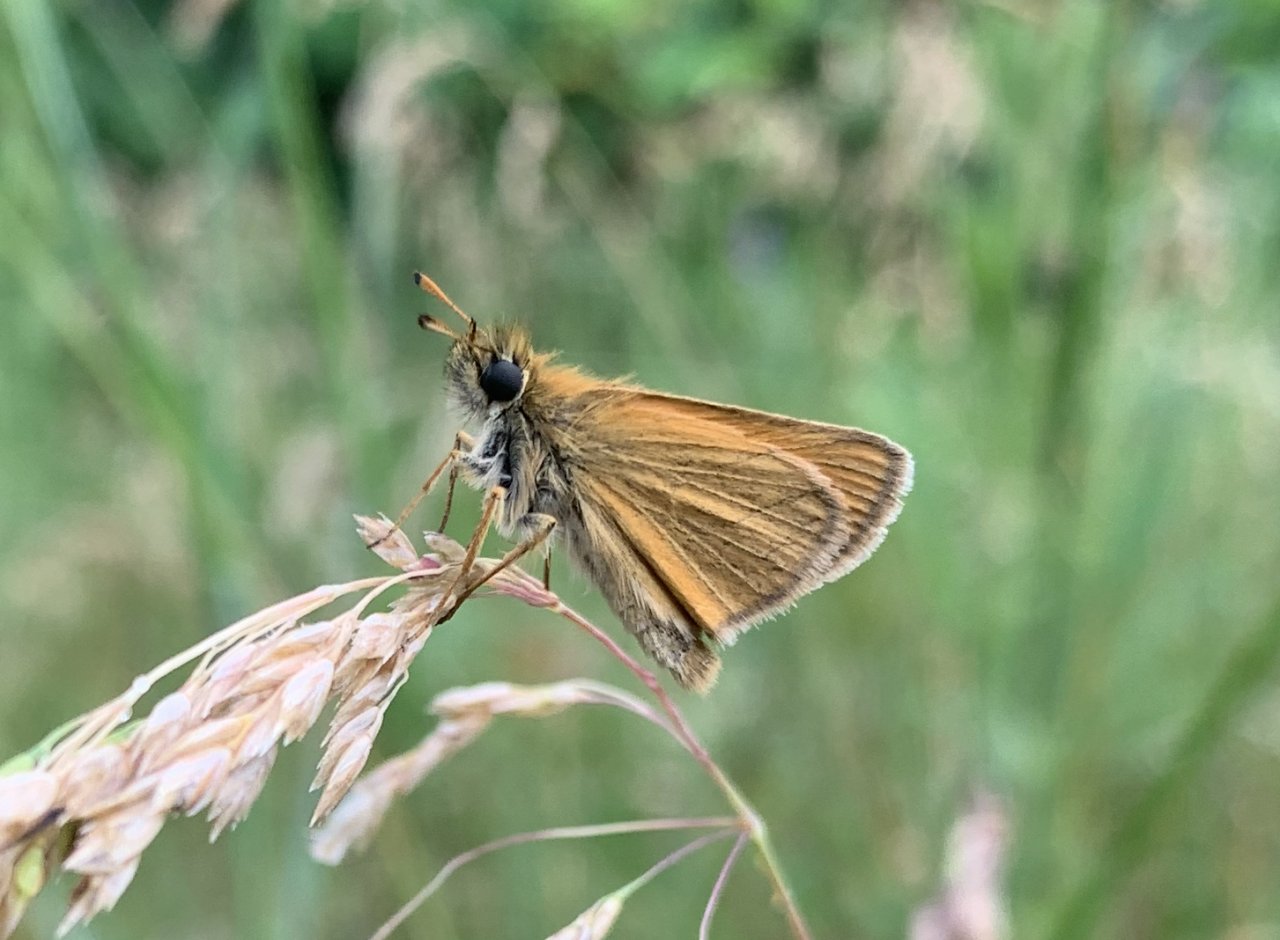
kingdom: Animalia
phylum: Arthropoda
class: Insecta
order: Lepidoptera
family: Hesperiidae
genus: Thymelicus
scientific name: Thymelicus lineola
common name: European Skipper
